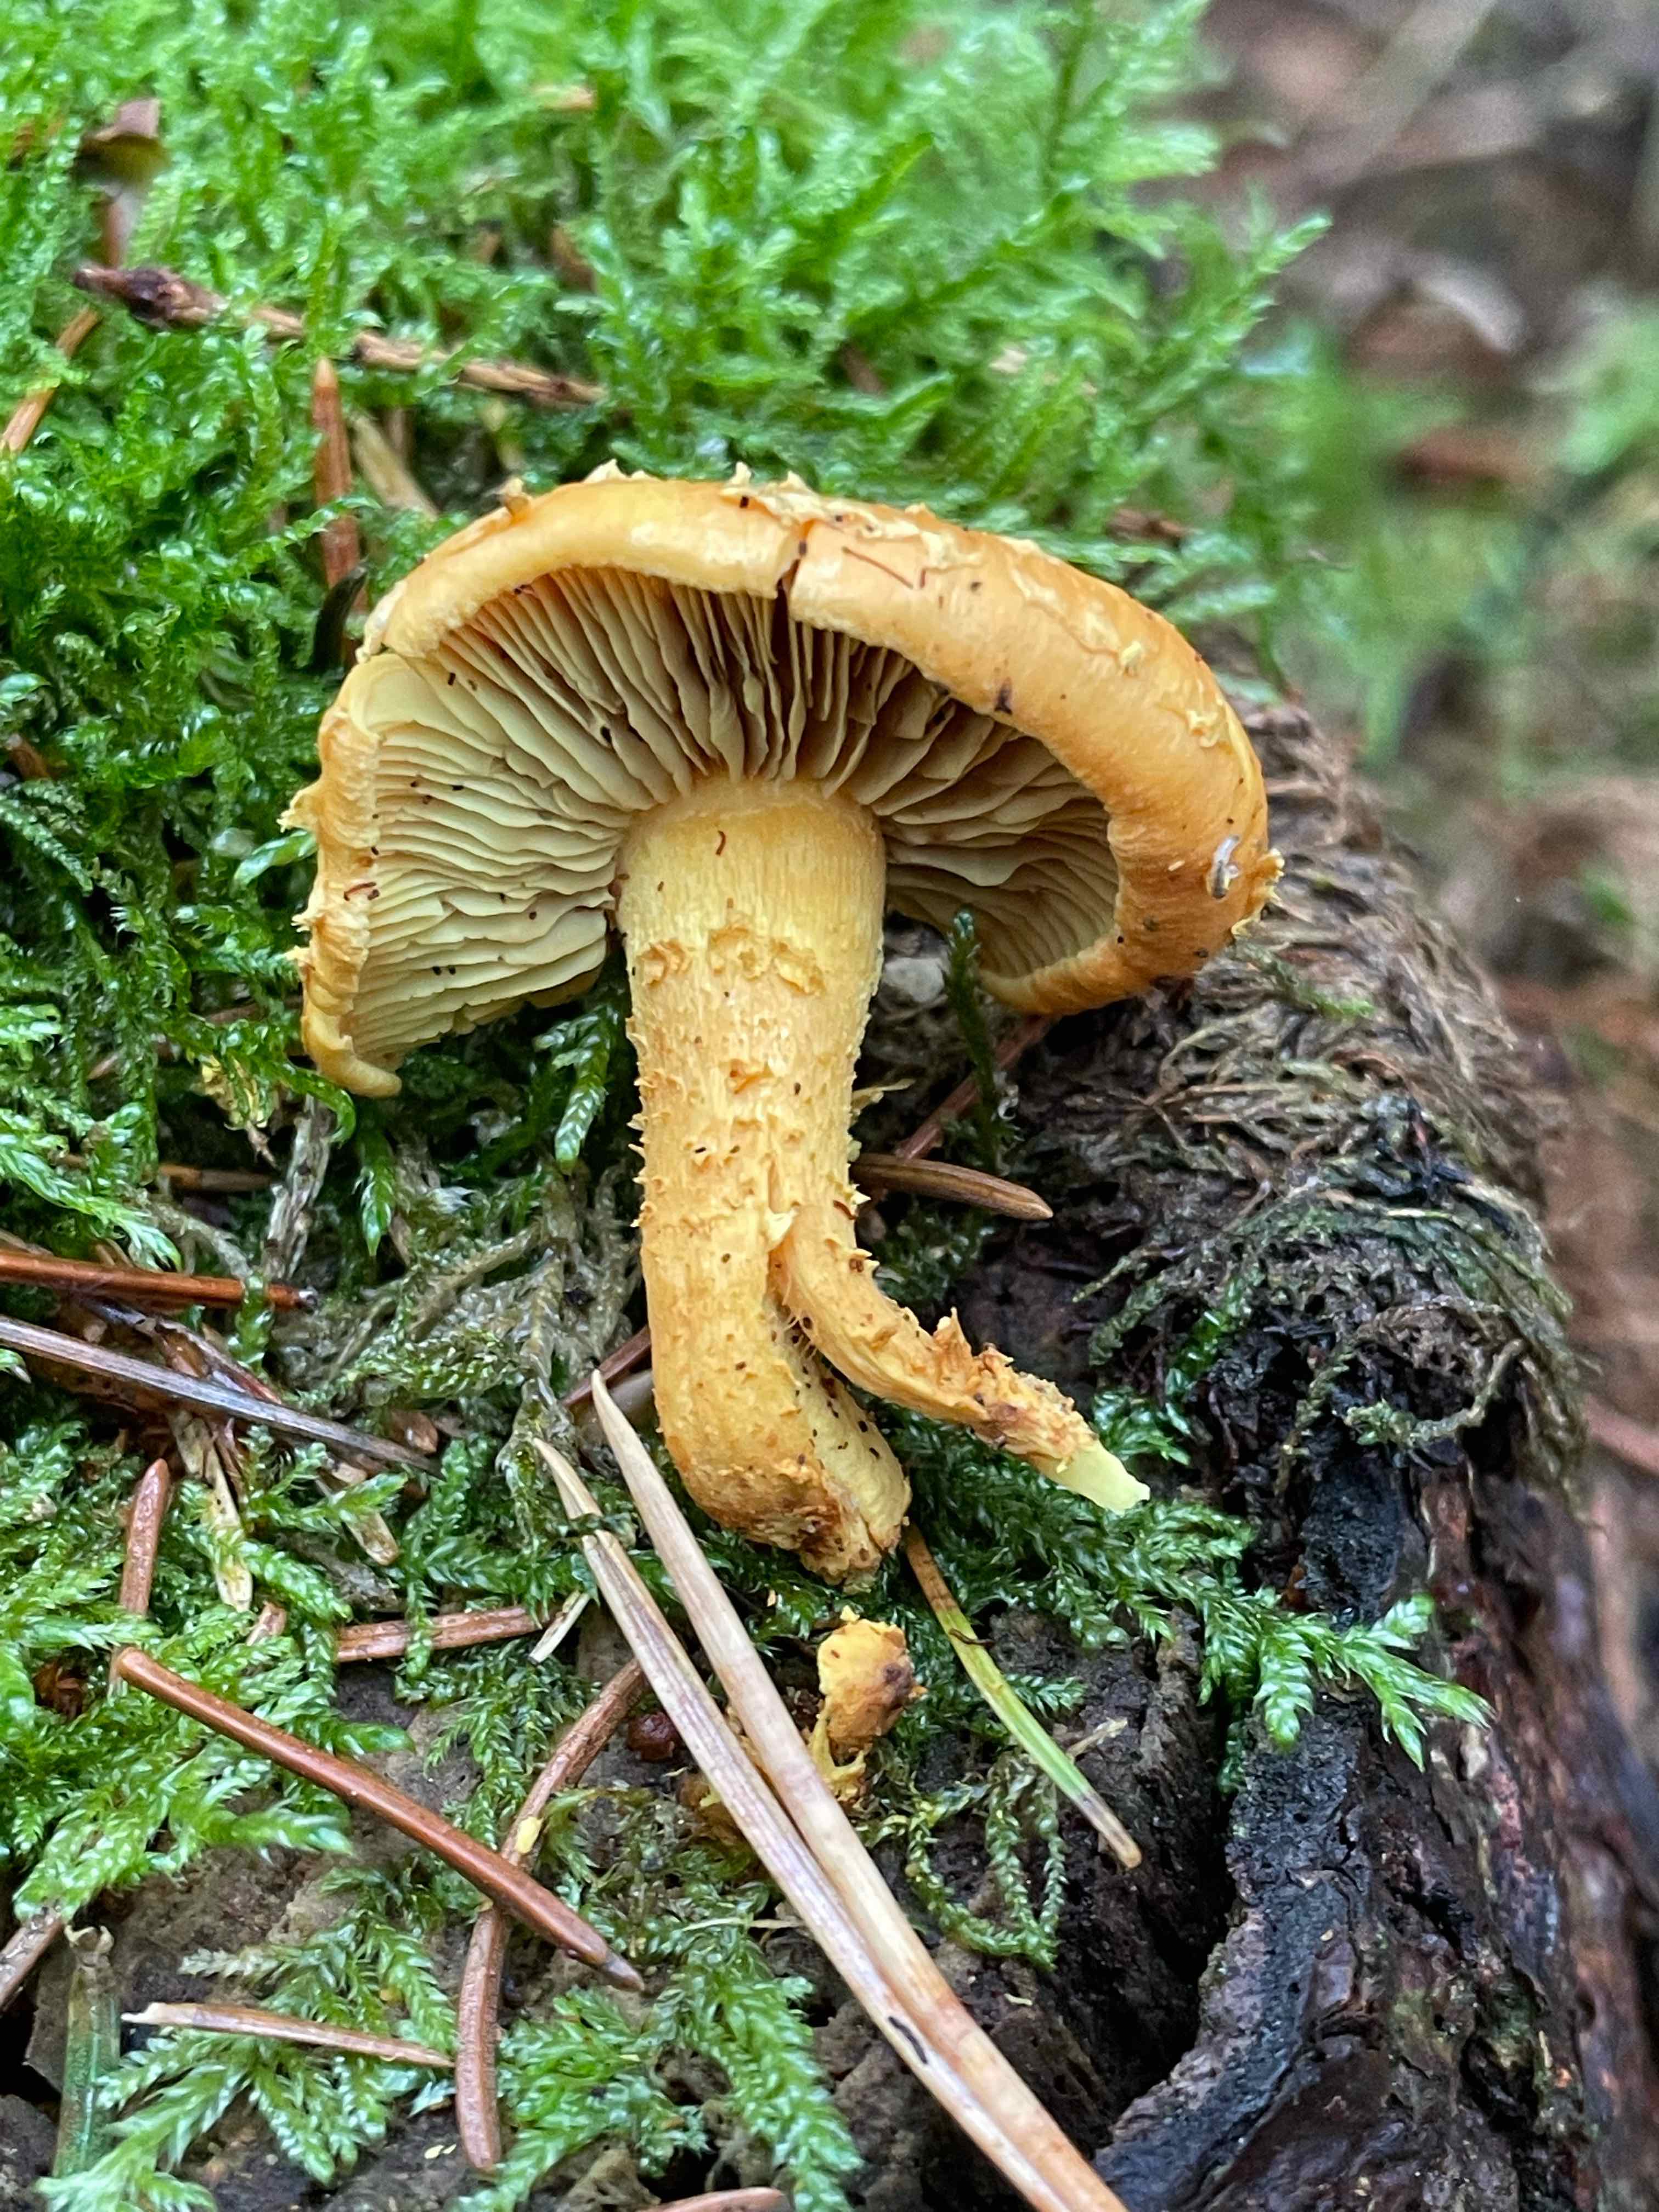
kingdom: Fungi
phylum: Basidiomycota
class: Agaricomycetes
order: Agaricales
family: Strophariaceae
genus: Pholiota
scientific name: Pholiota flammans
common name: flamme-skælhat
